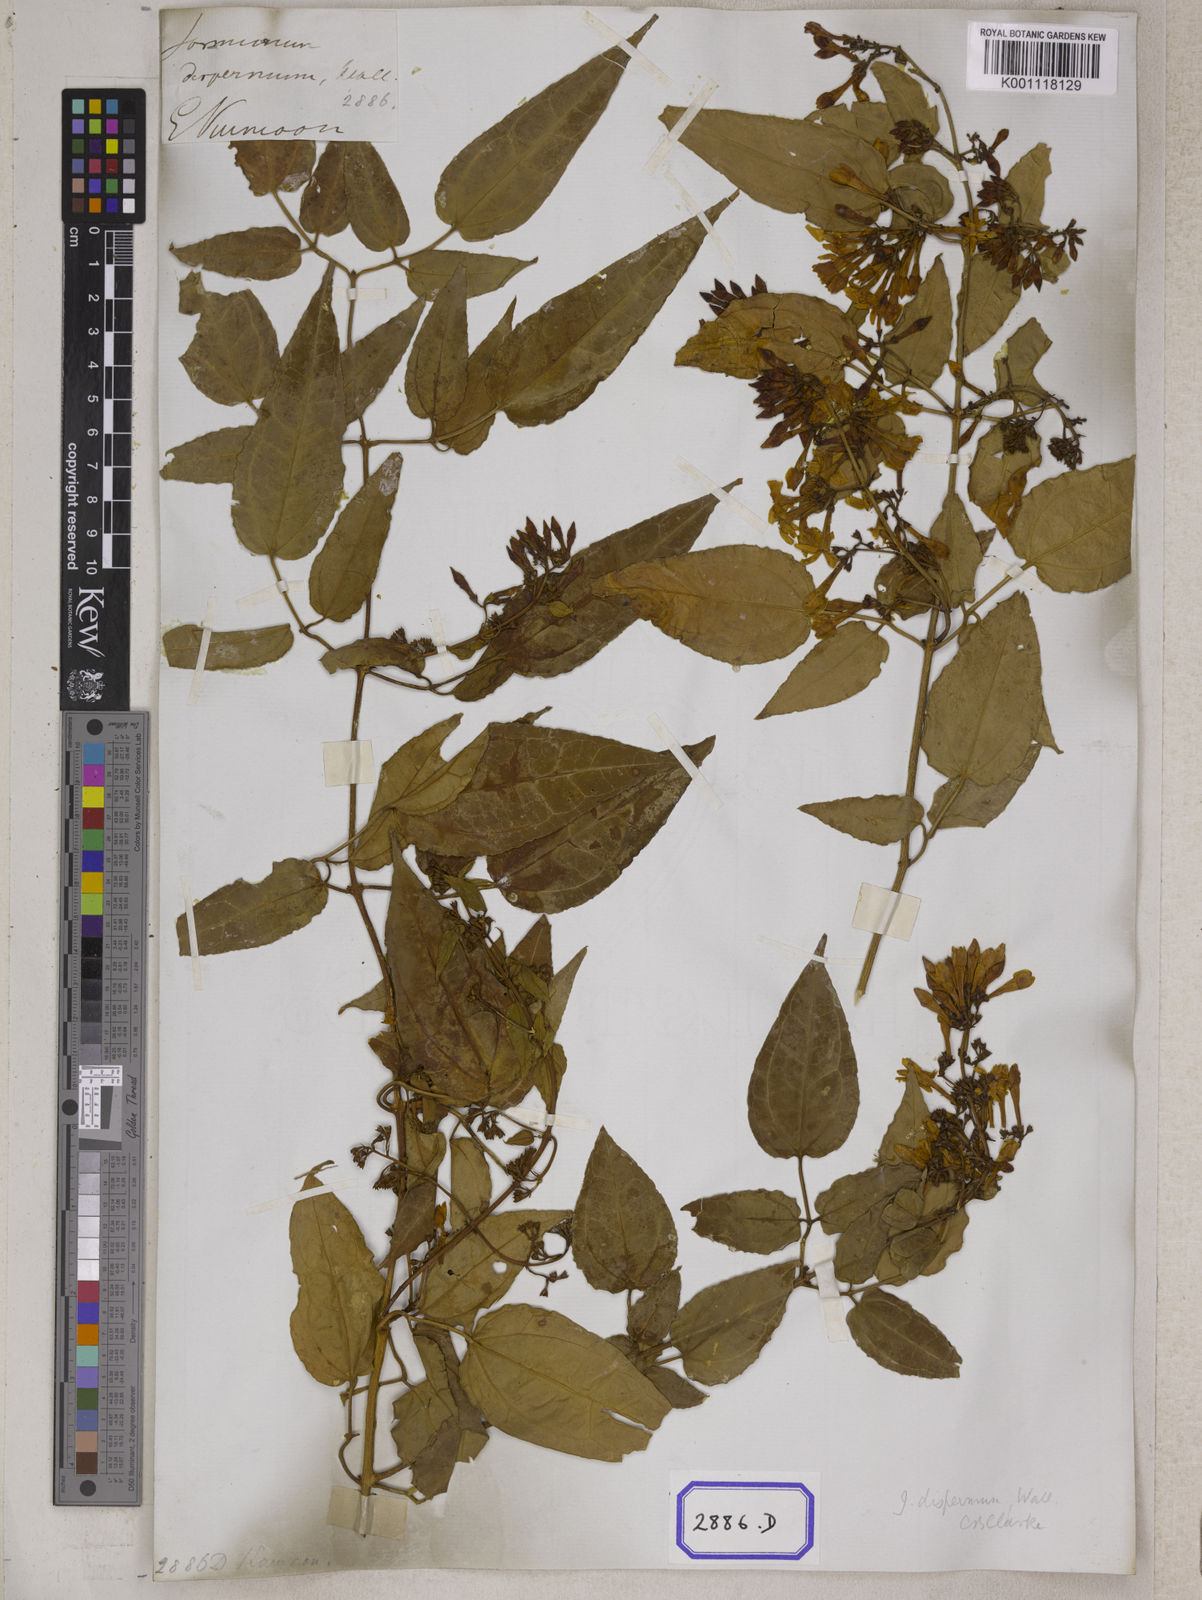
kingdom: Plantae
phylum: Tracheophyta
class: Magnoliopsida
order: Lamiales
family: Oleaceae
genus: Jasminum
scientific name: Jasminum dispermum
